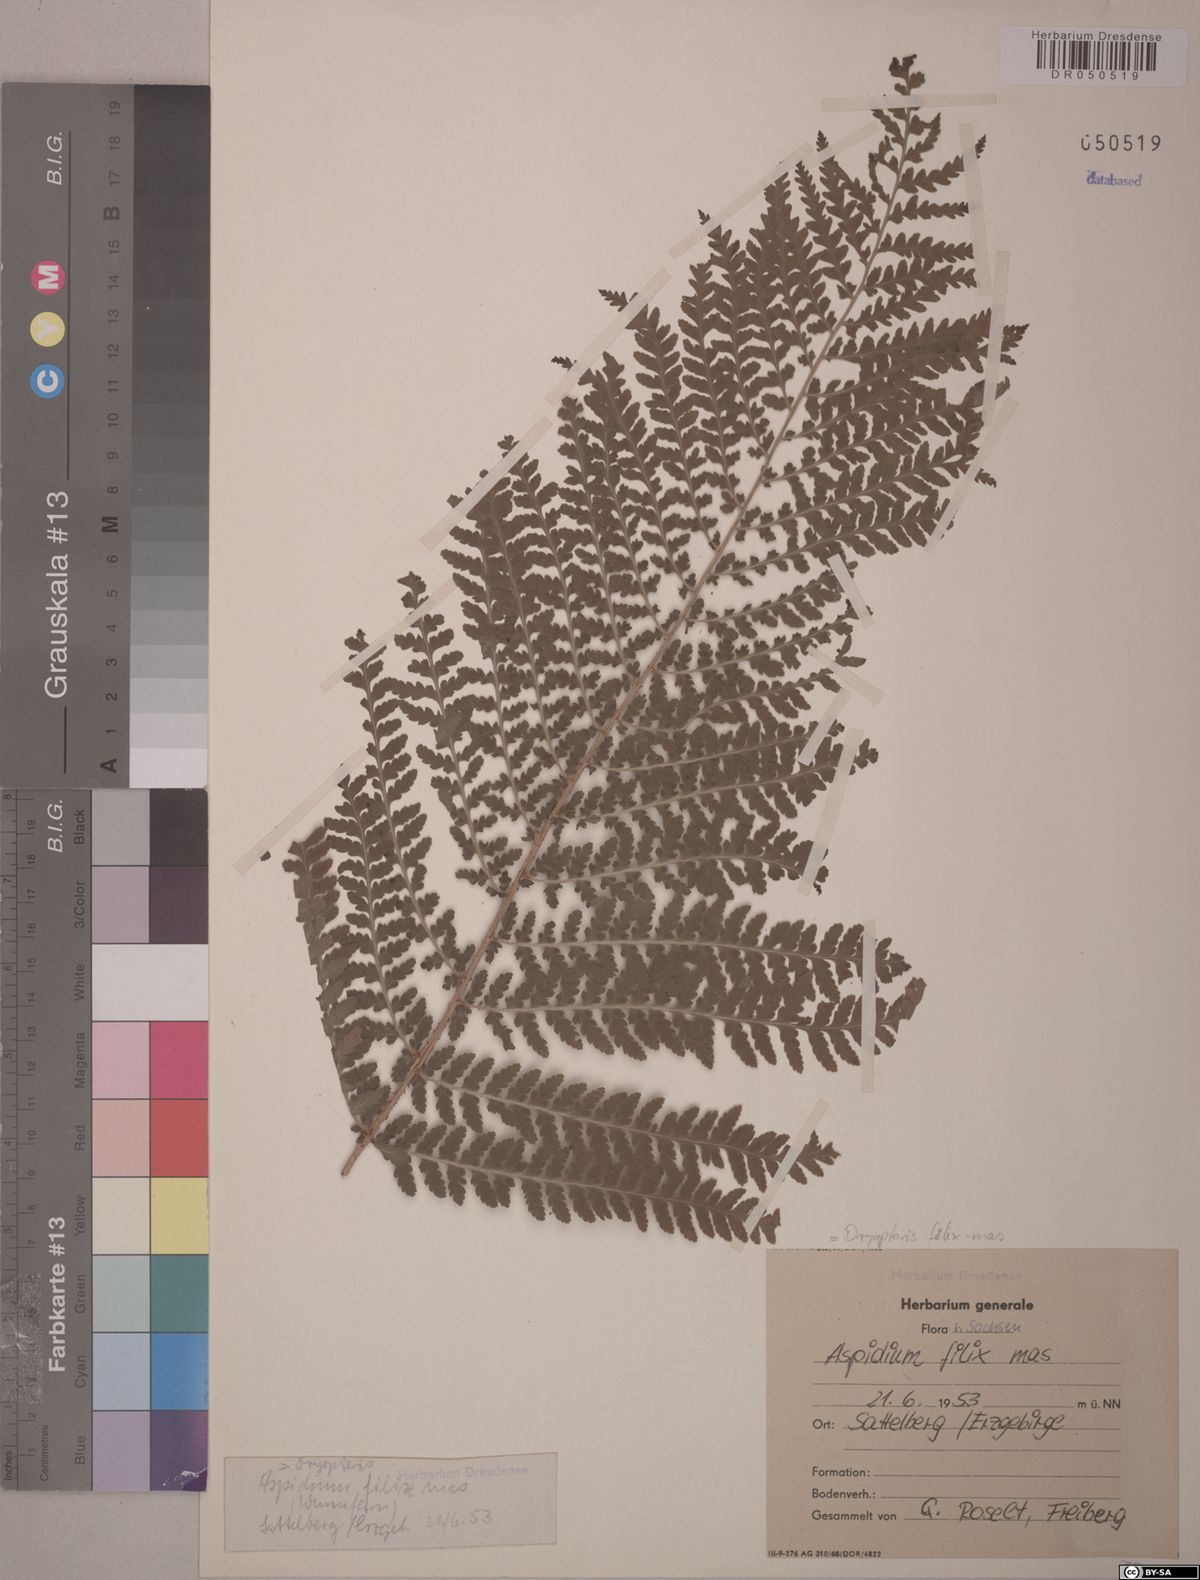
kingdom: Plantae
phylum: Tracheophyta
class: Polypodiopsida
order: Polypodiales
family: Dryopteridaceae
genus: Dryopteris
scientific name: Dryopteris filix-mas
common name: Male fern
